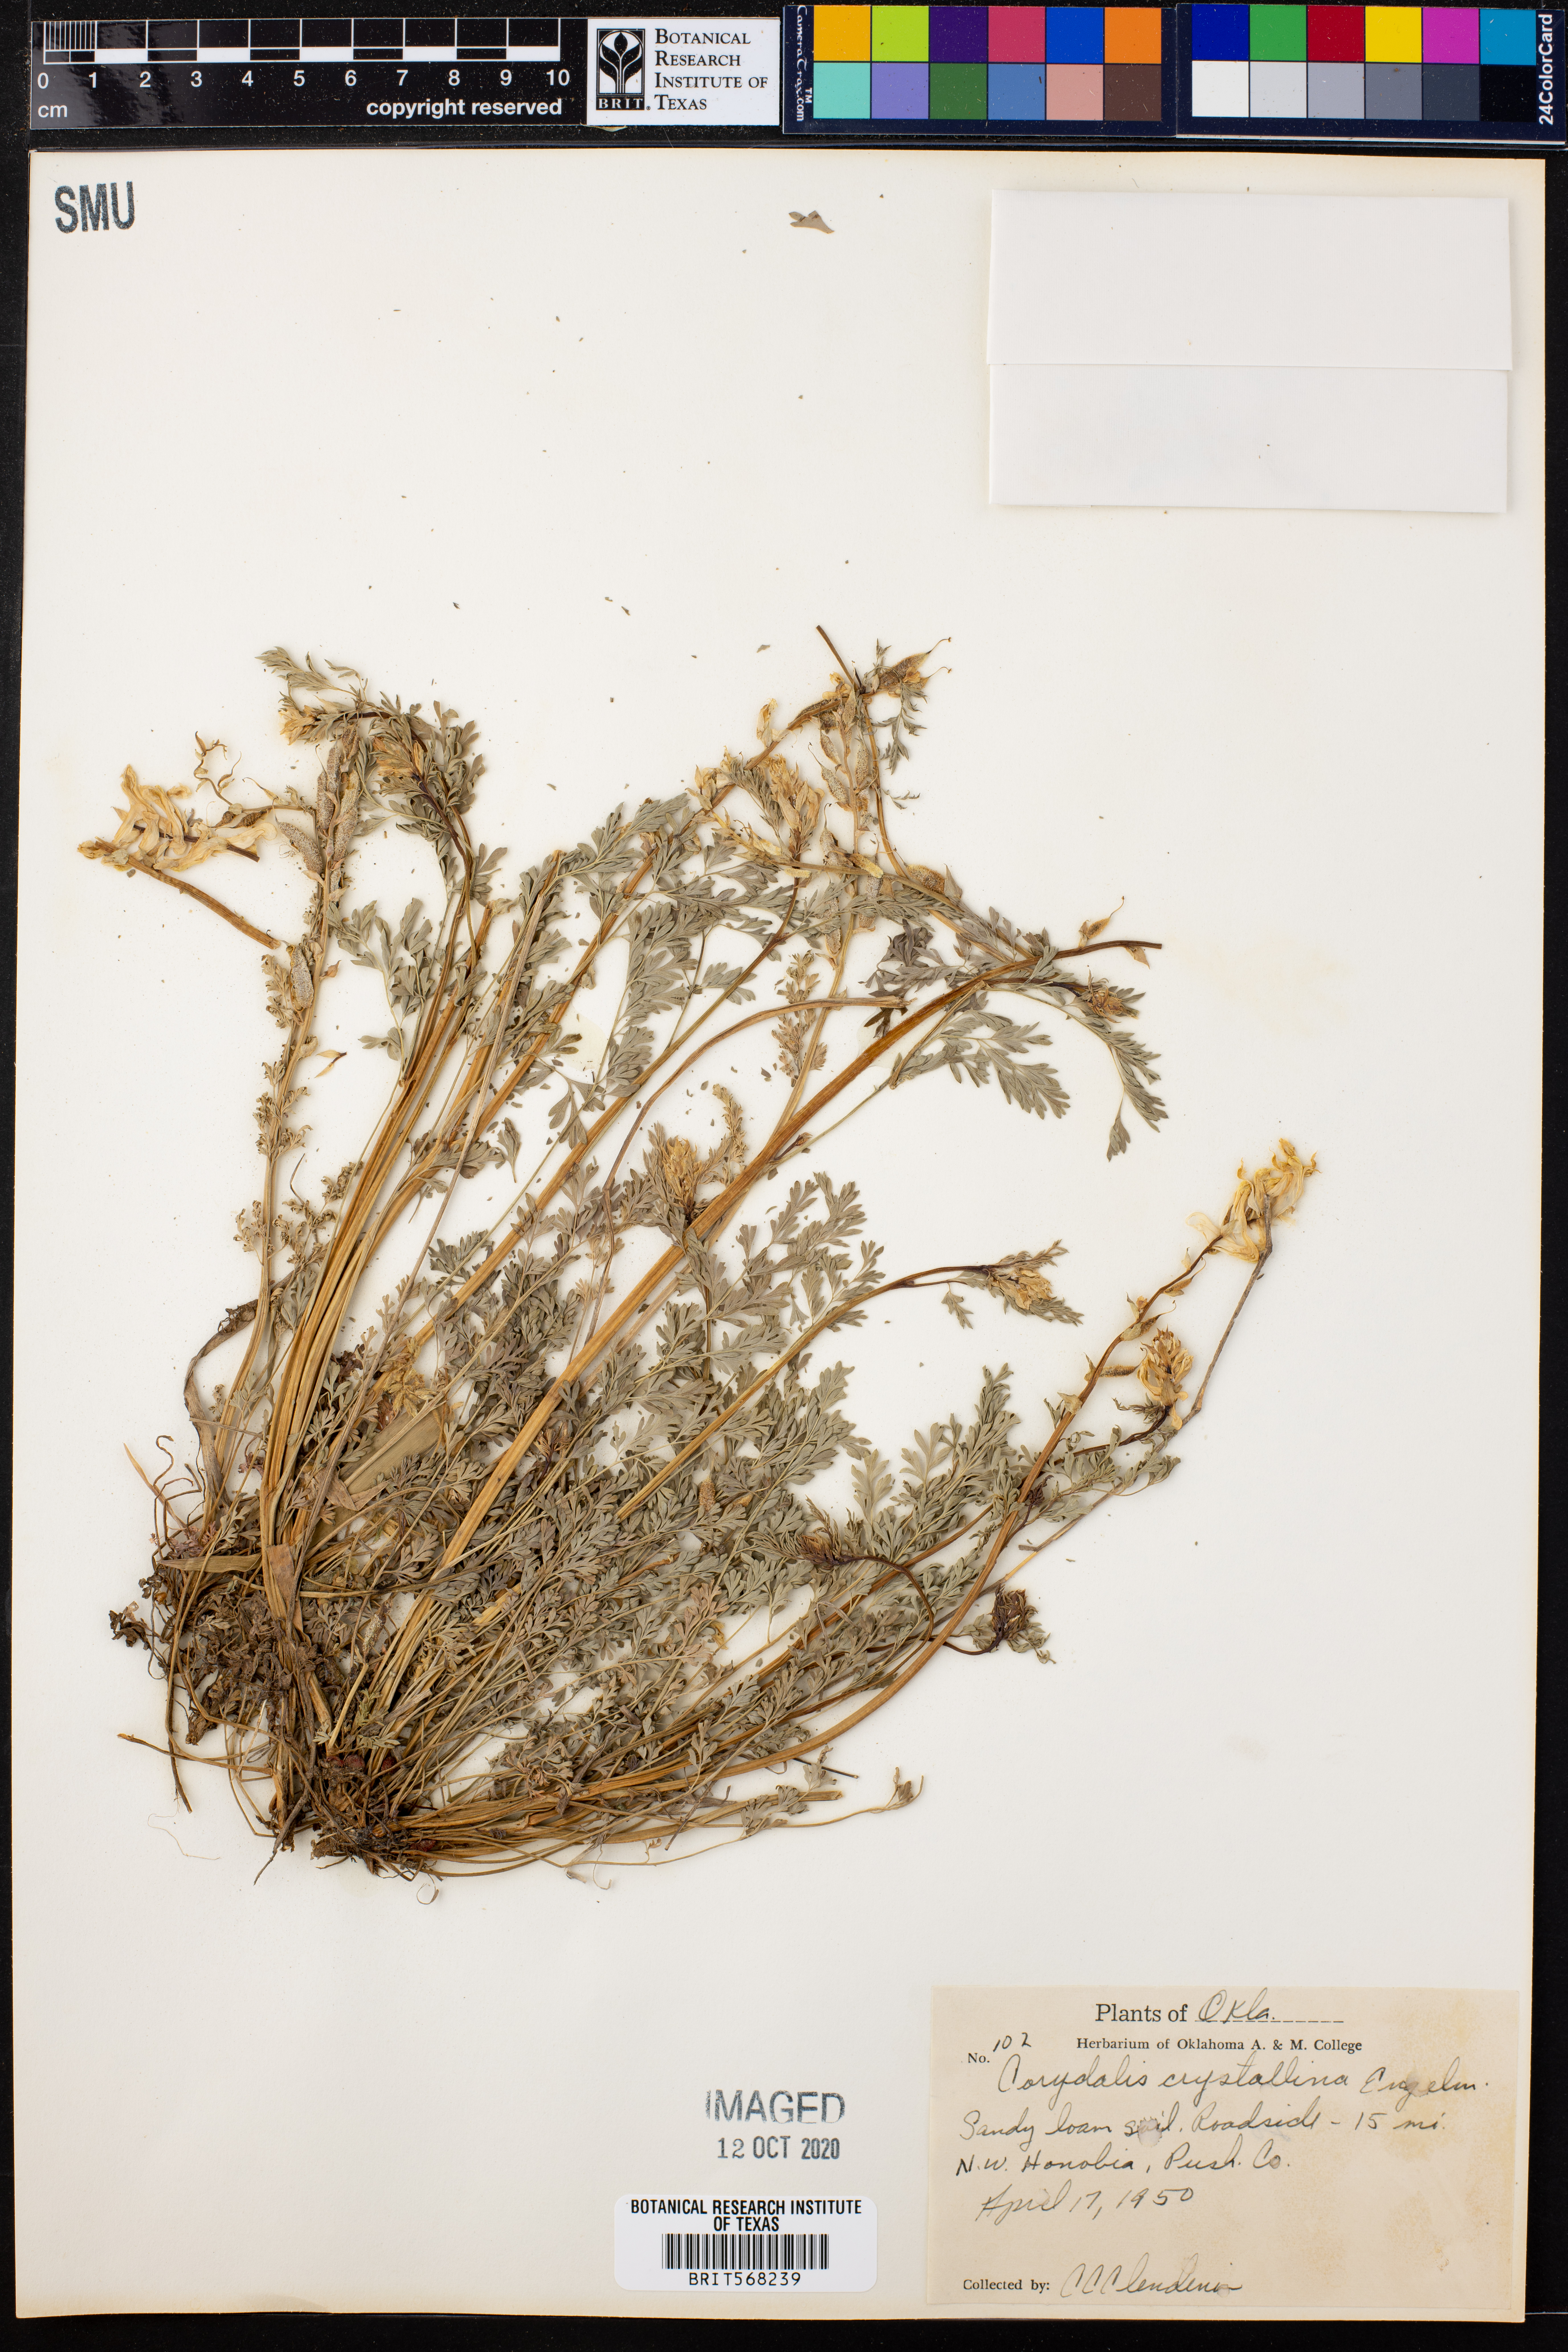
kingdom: Plantae
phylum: Tracheophyta
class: Magnoliopsida
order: Ranunculales
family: Papaveraceae
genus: Corydalis
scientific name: Corydalis crystallina
